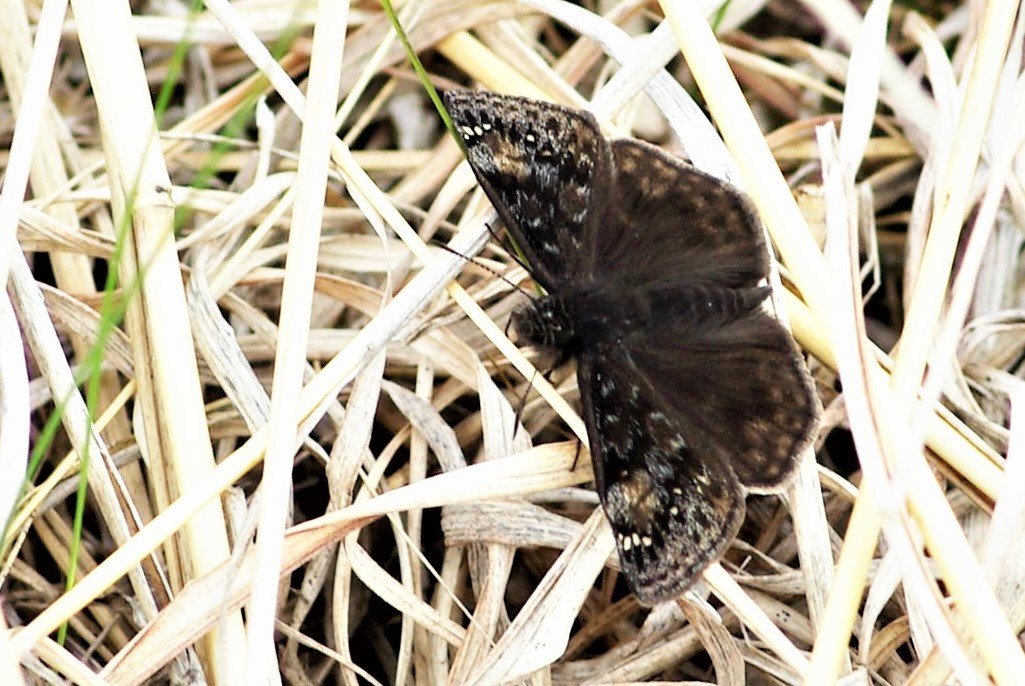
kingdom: Animalia
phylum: Arthropoda
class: Insecta
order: Lepidoptera
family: Hesperiidae
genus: Gesta
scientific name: Gesta
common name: Juvenal's Duskywing
